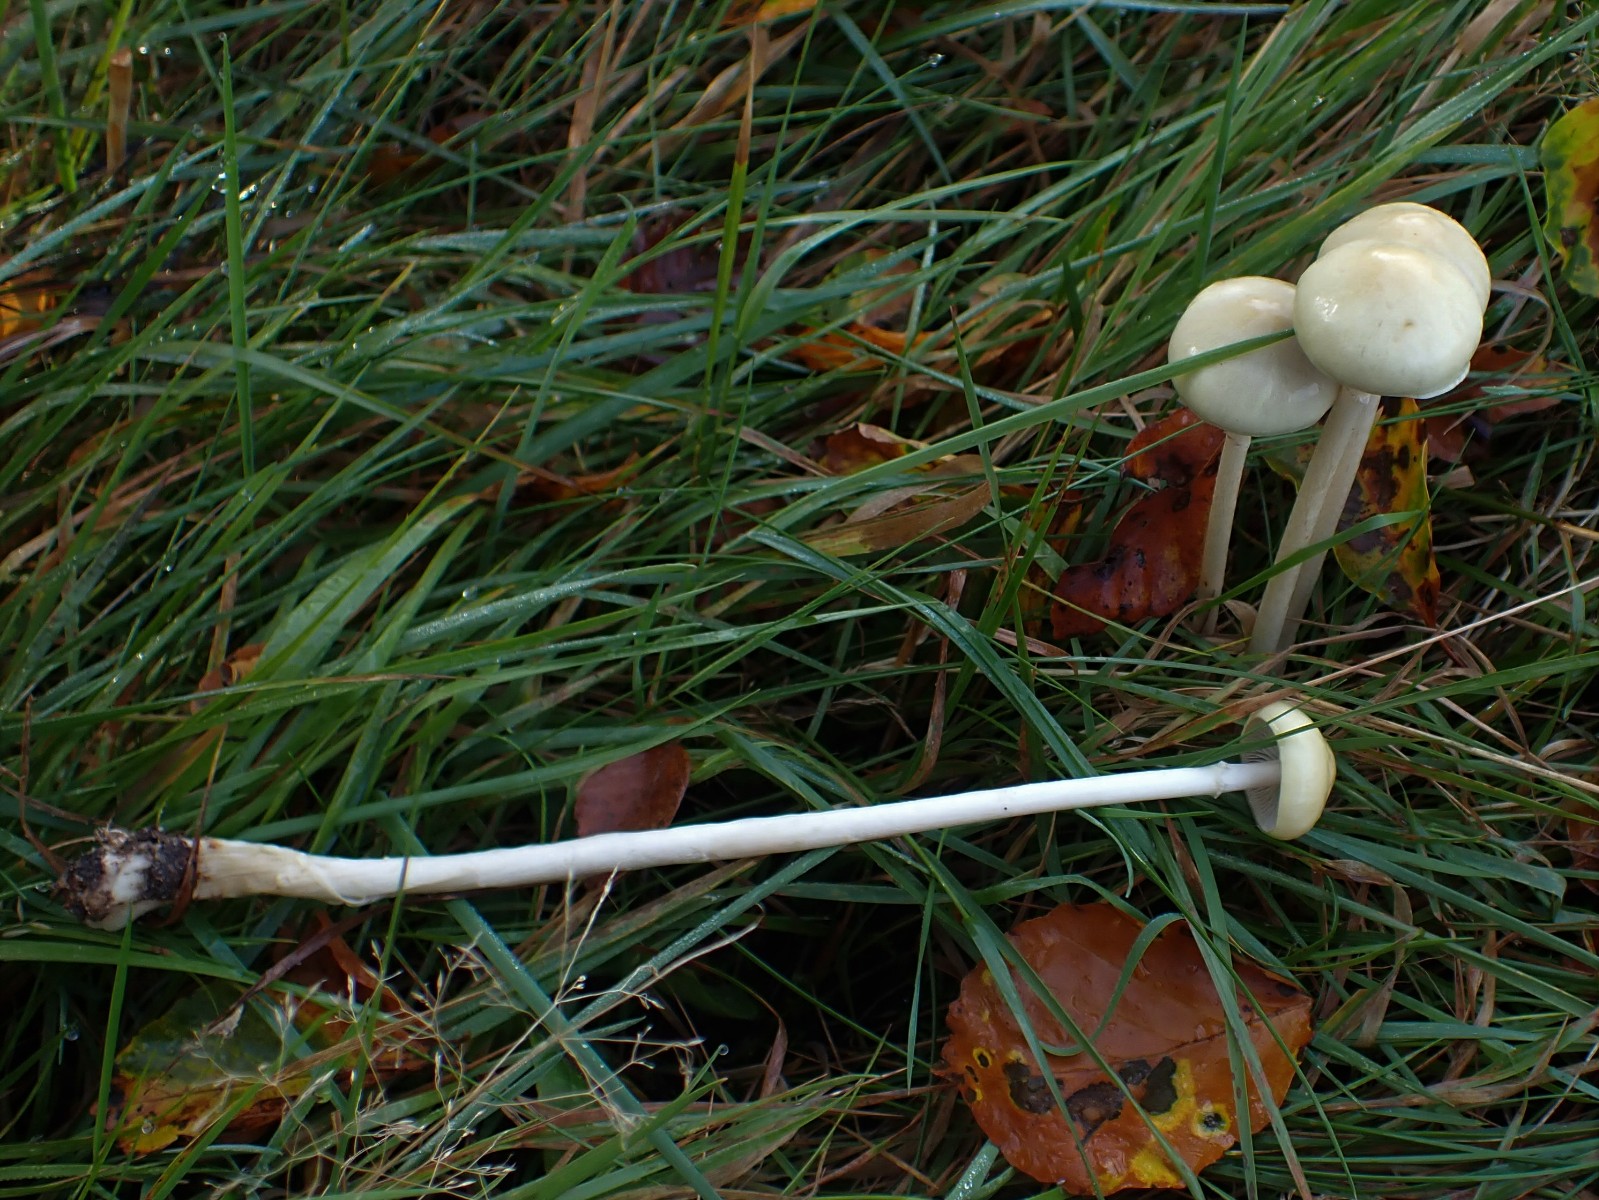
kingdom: Fungi
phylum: Basidiomycota
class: Agaricomycetes
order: Agaricales
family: Strophariaceae
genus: Protostropharia
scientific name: Protostropharia semiglobata
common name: halvkugleformet bredblad
